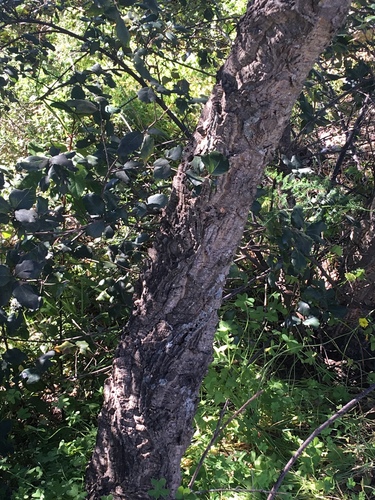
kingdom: Plantae
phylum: Tracheophyta
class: Magnoliopsida
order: Fagales
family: Fagaceae
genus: Quercus
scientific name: Quercus suber
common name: Cork oak
